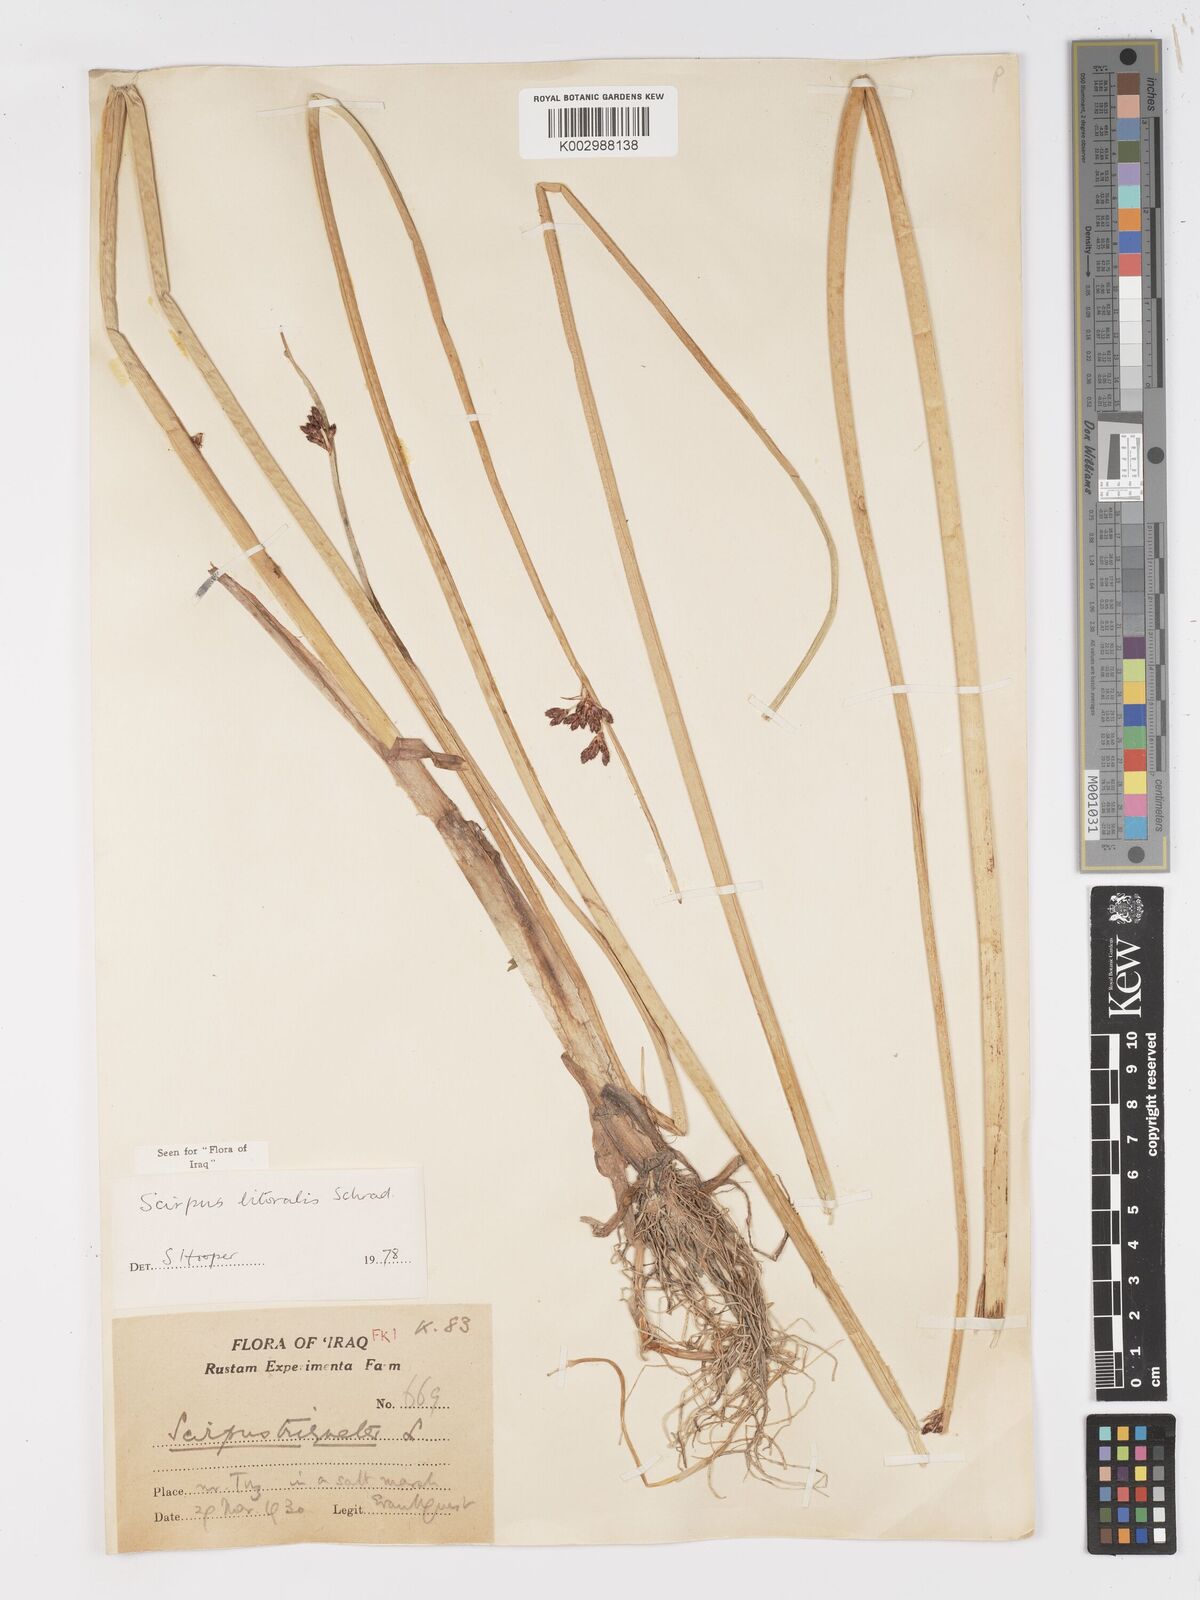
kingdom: Plantae
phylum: Tracheophyta
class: Liliopsida
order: Poales
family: Cyperaceae
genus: Schoenoplectus
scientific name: Schoenoplectus litoralis
